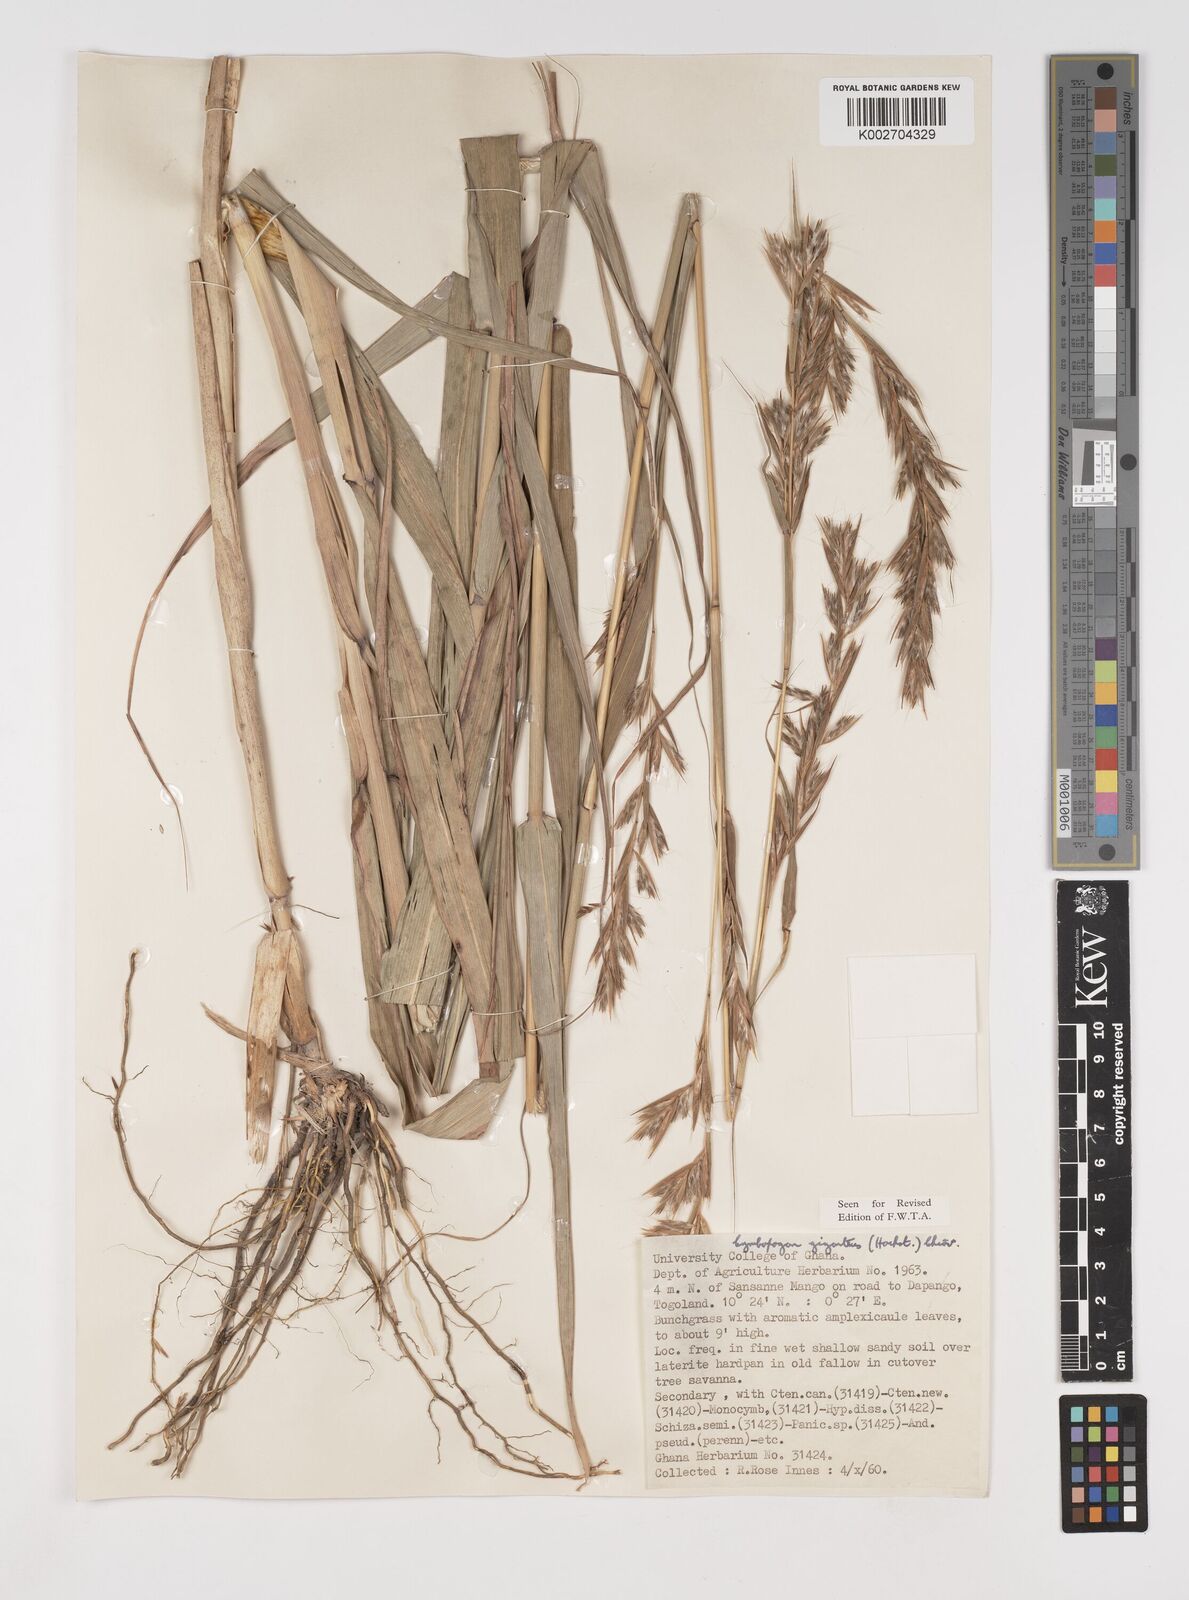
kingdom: Plantae
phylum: Tracheophyta
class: Liliopsida
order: Poales
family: Poaceae
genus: Cymbopogon
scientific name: Cymbopogon giganteus
